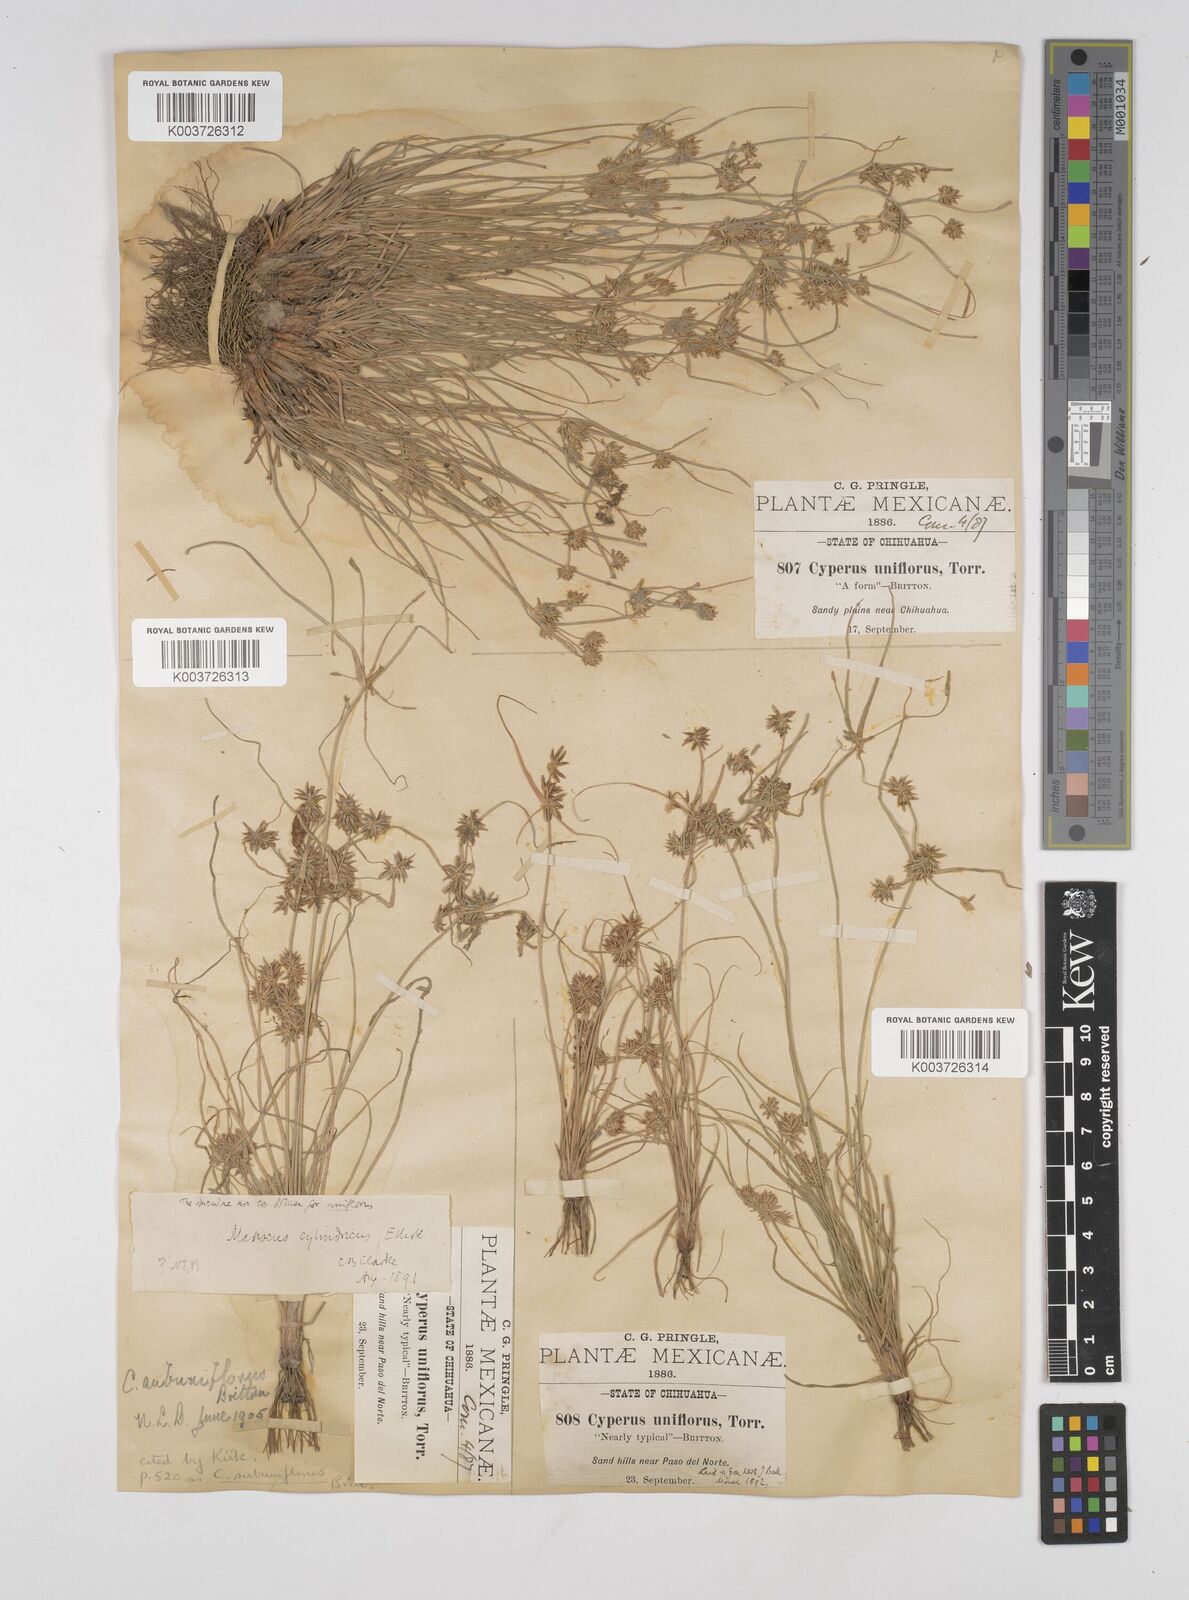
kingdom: Plantae
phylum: Tracheophyta
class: Liliopsida
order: Poales
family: Cyperaceae
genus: Cyperus
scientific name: Cyperus retroflexus
